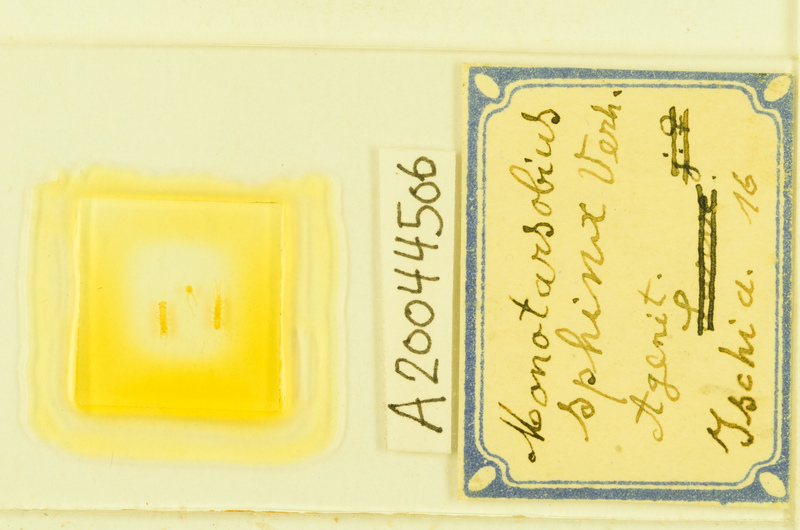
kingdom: Animalia
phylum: Arthropoda
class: Chilopoda
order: Lithobiomorpha
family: Lithobiidae
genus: Lithobius
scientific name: Lithobius sphinx
